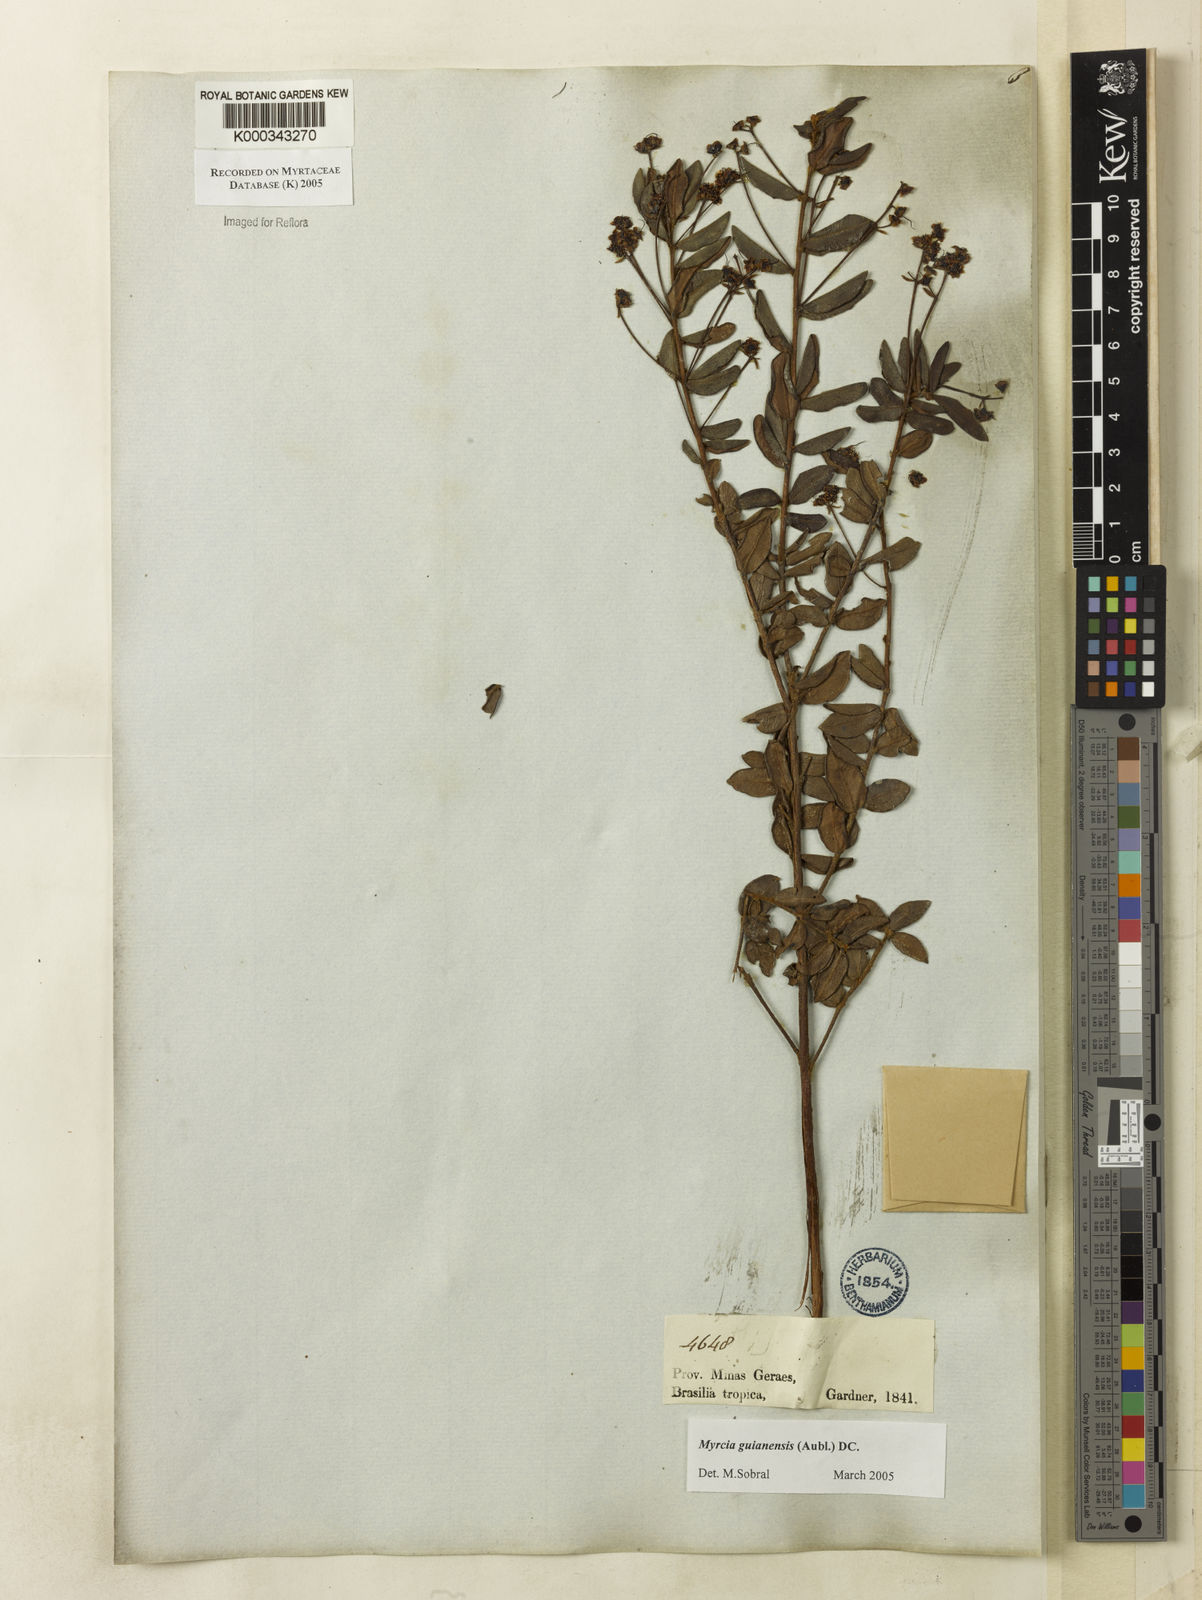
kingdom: Plantae
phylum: Tracheophyta
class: Magnoliopsida
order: Myrtales
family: Myrtaceae
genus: Myrcia
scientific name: Myrcia guianensis
